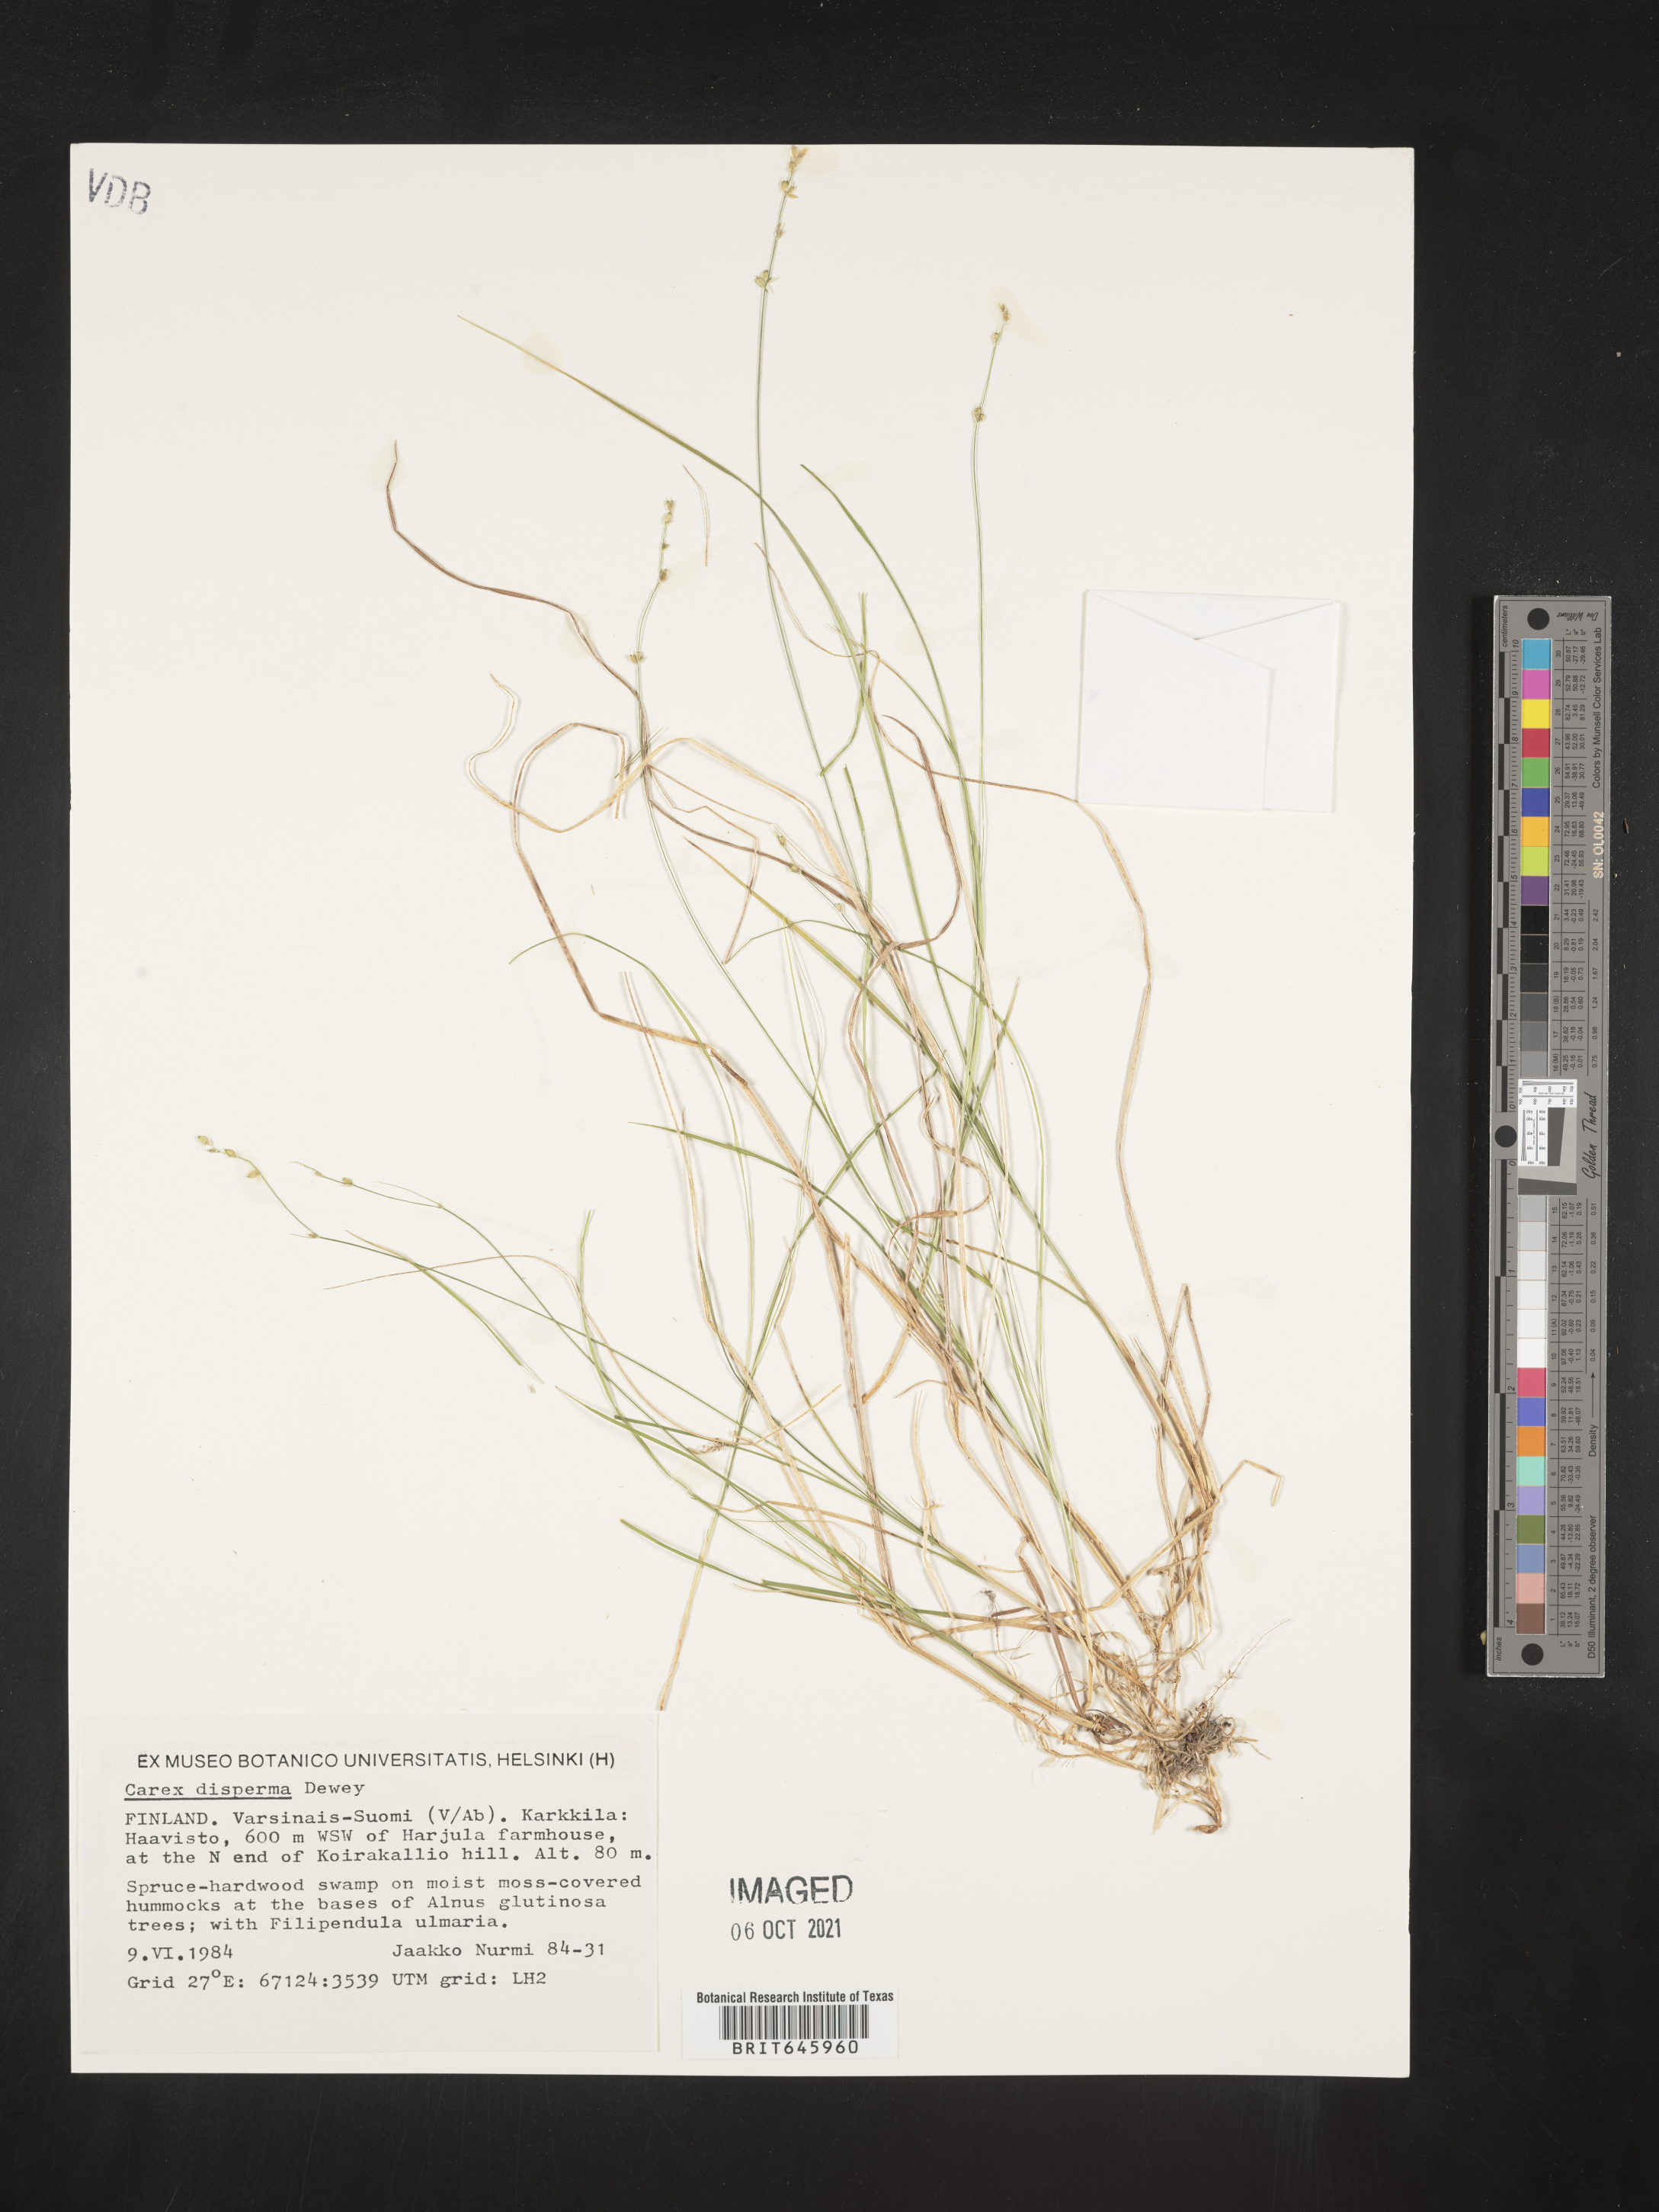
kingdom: Plantae
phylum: Tracheophyta
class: Liliopsida
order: Poales
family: Cyperaceae
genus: Carex
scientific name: Carex disperma
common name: Short-leaved sedge
